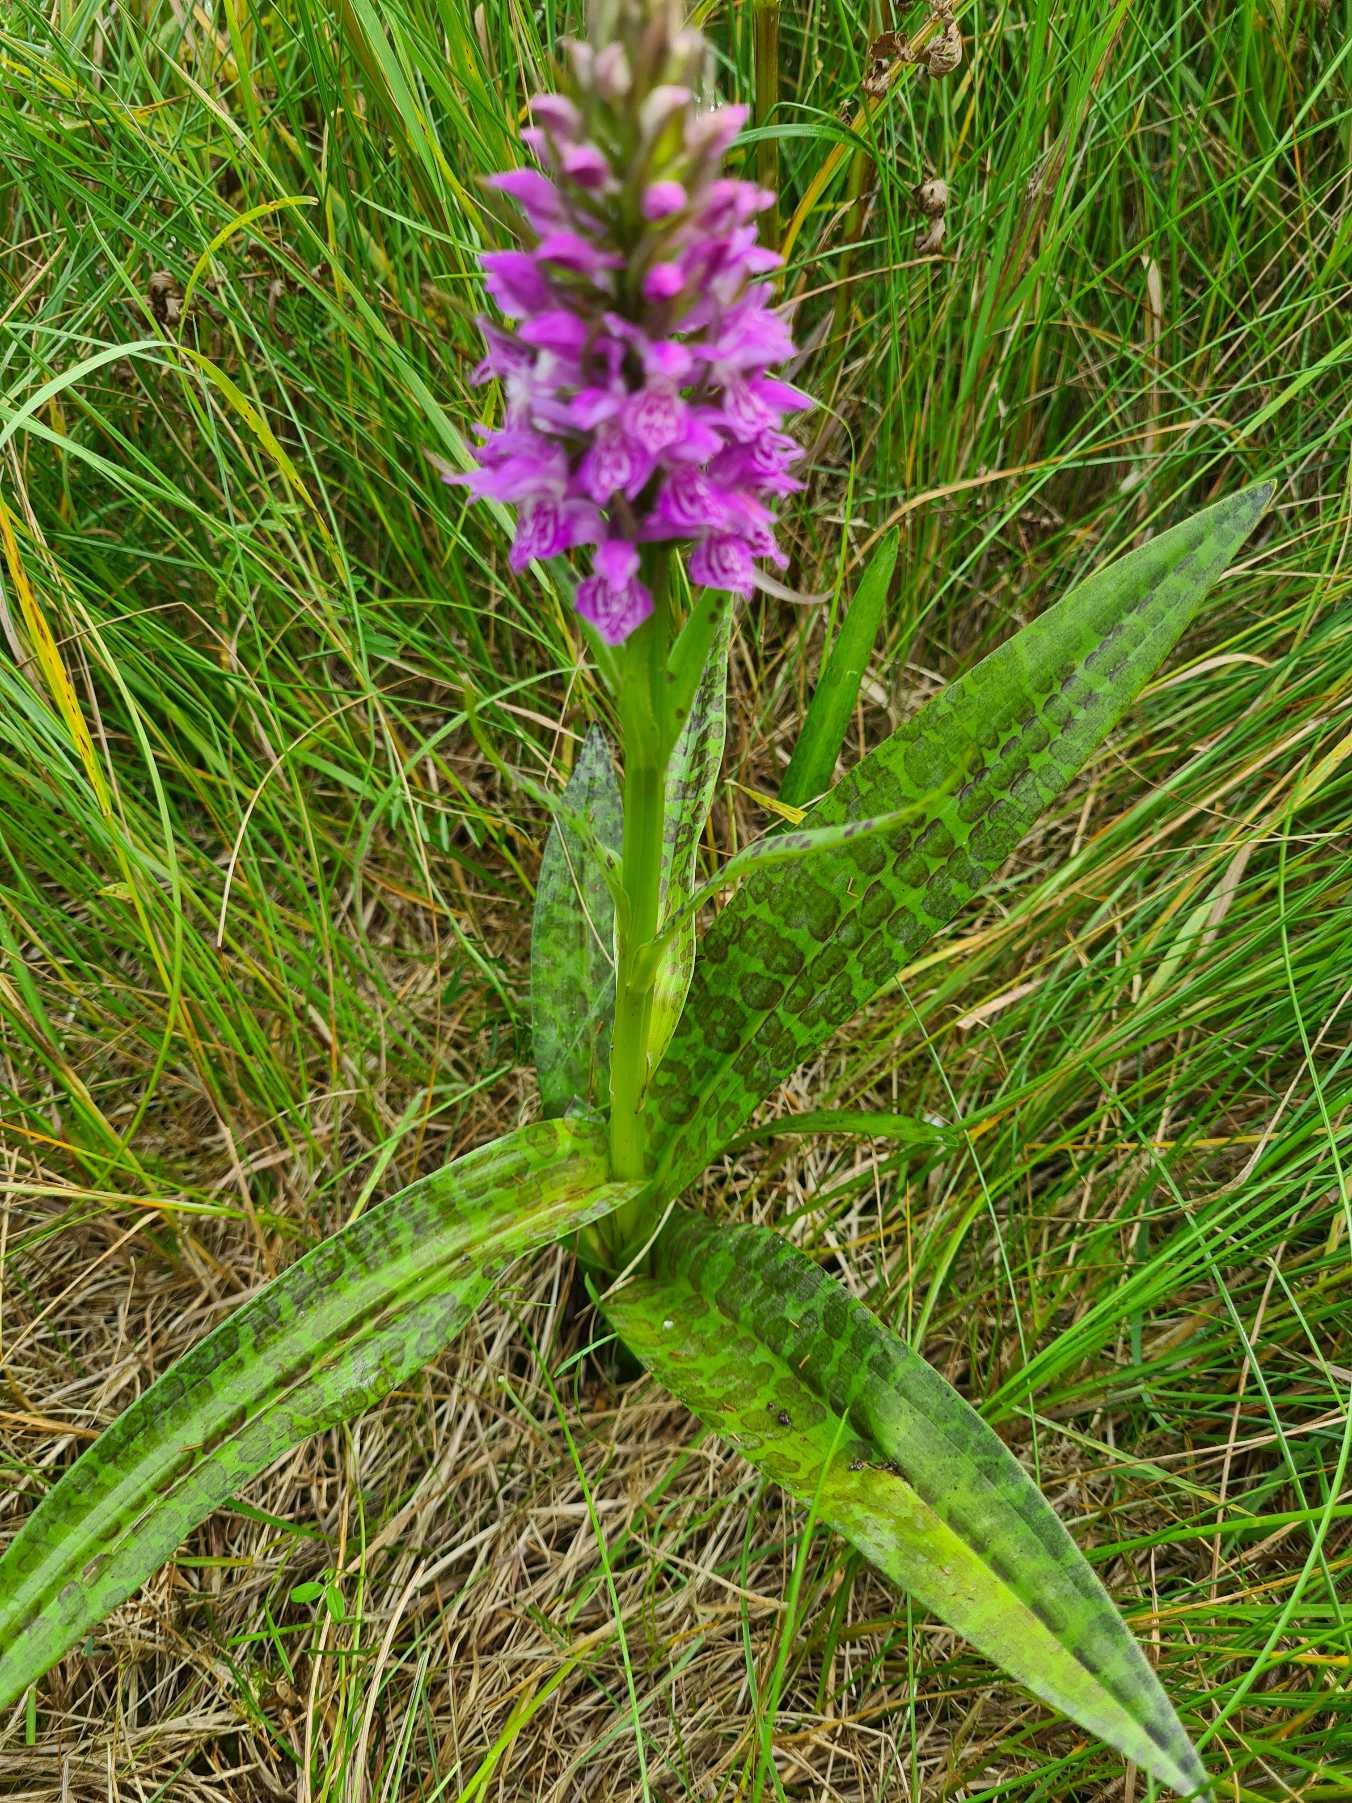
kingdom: Plantae
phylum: Tracheophyta
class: Liliopsida
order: Asparagales
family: Orchidaceae
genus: Dactylorhiza
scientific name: Dactylorhiza majalis
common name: Ringplettet gøgeurt
